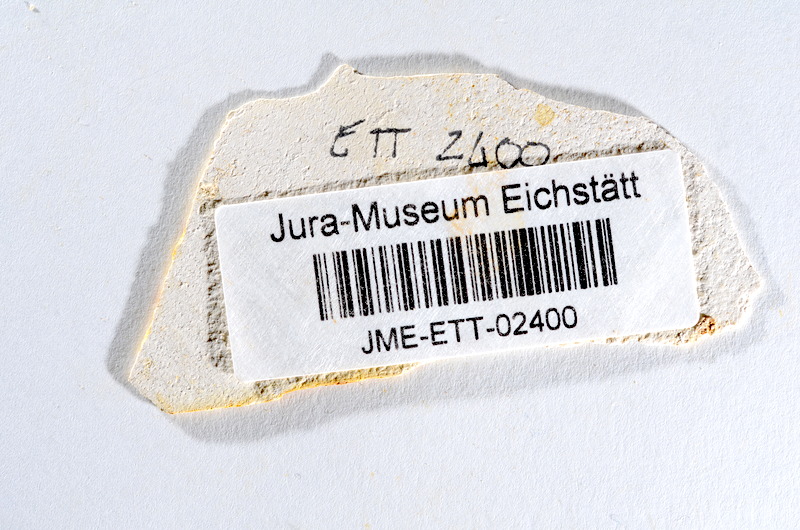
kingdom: Animalia
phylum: Chordata
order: Salmoniformes
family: Orthogonikleithridae
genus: Orthogonikleithrus
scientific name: Orthogonikleithrus hoelli
